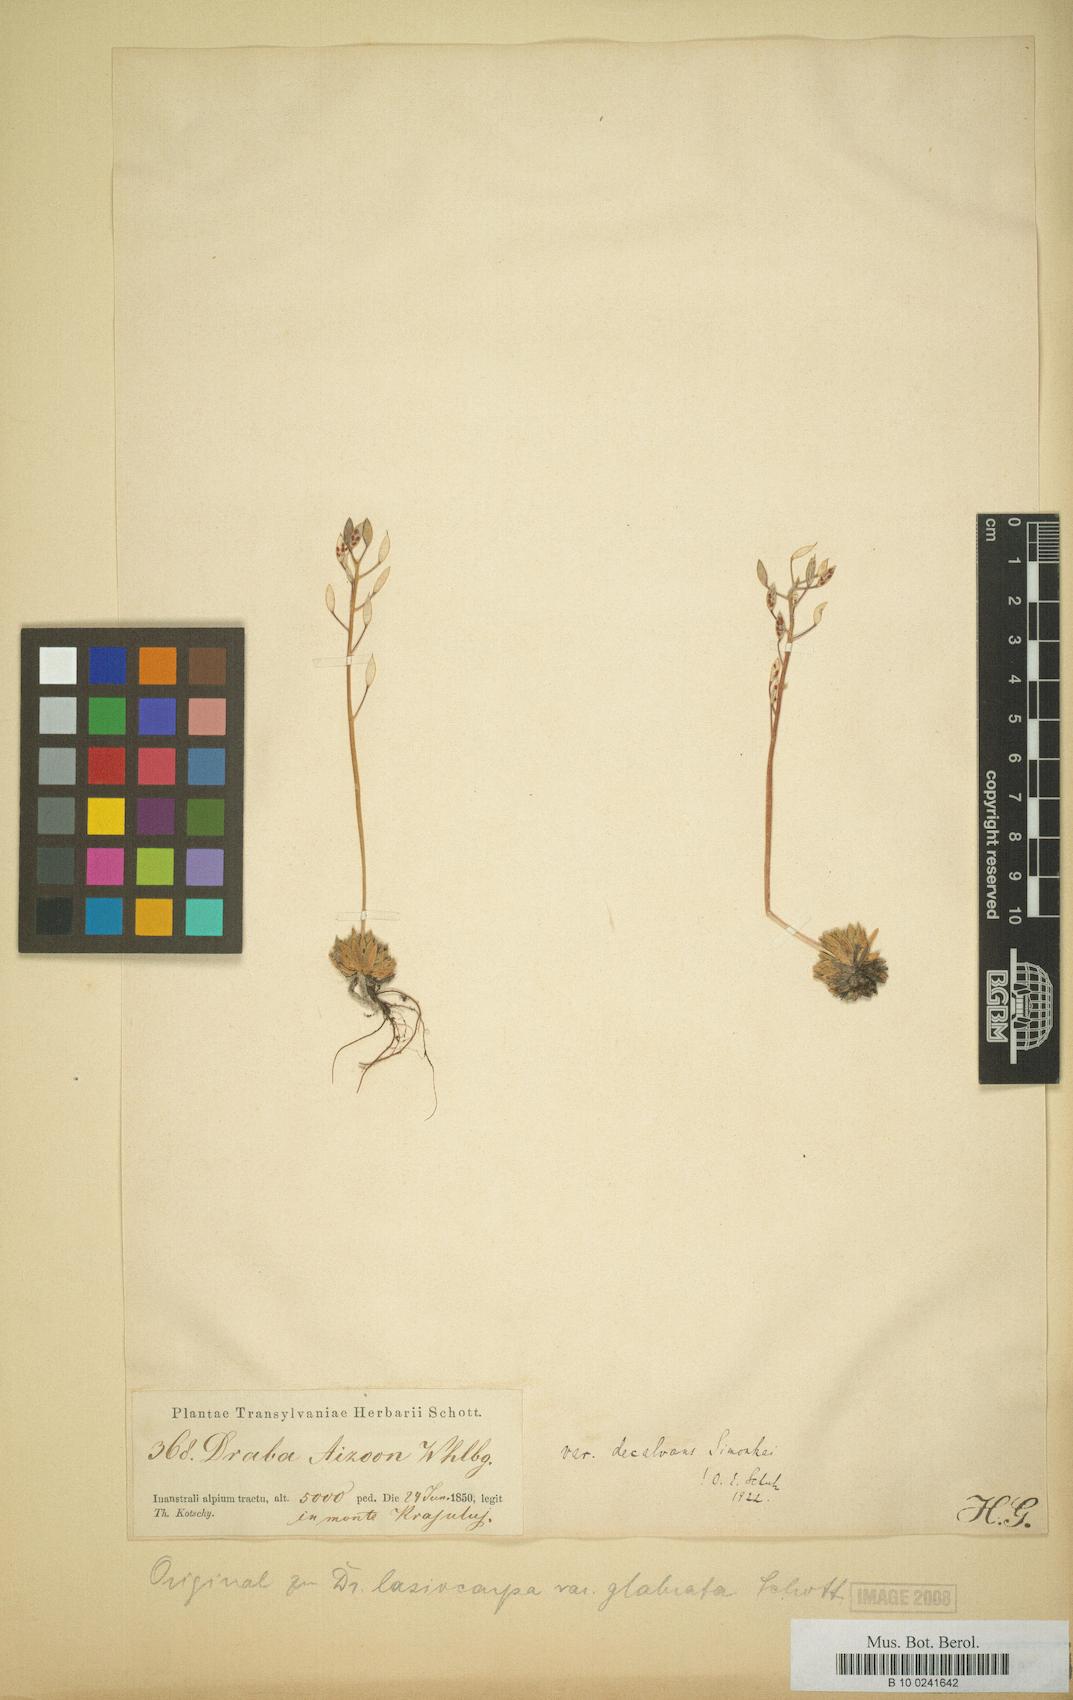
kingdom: Plantae
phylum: Tracheophyta
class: Magnoliopsida
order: Brassicales
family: Brassicaceae
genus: Draba
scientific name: Draba lasiocarpa
